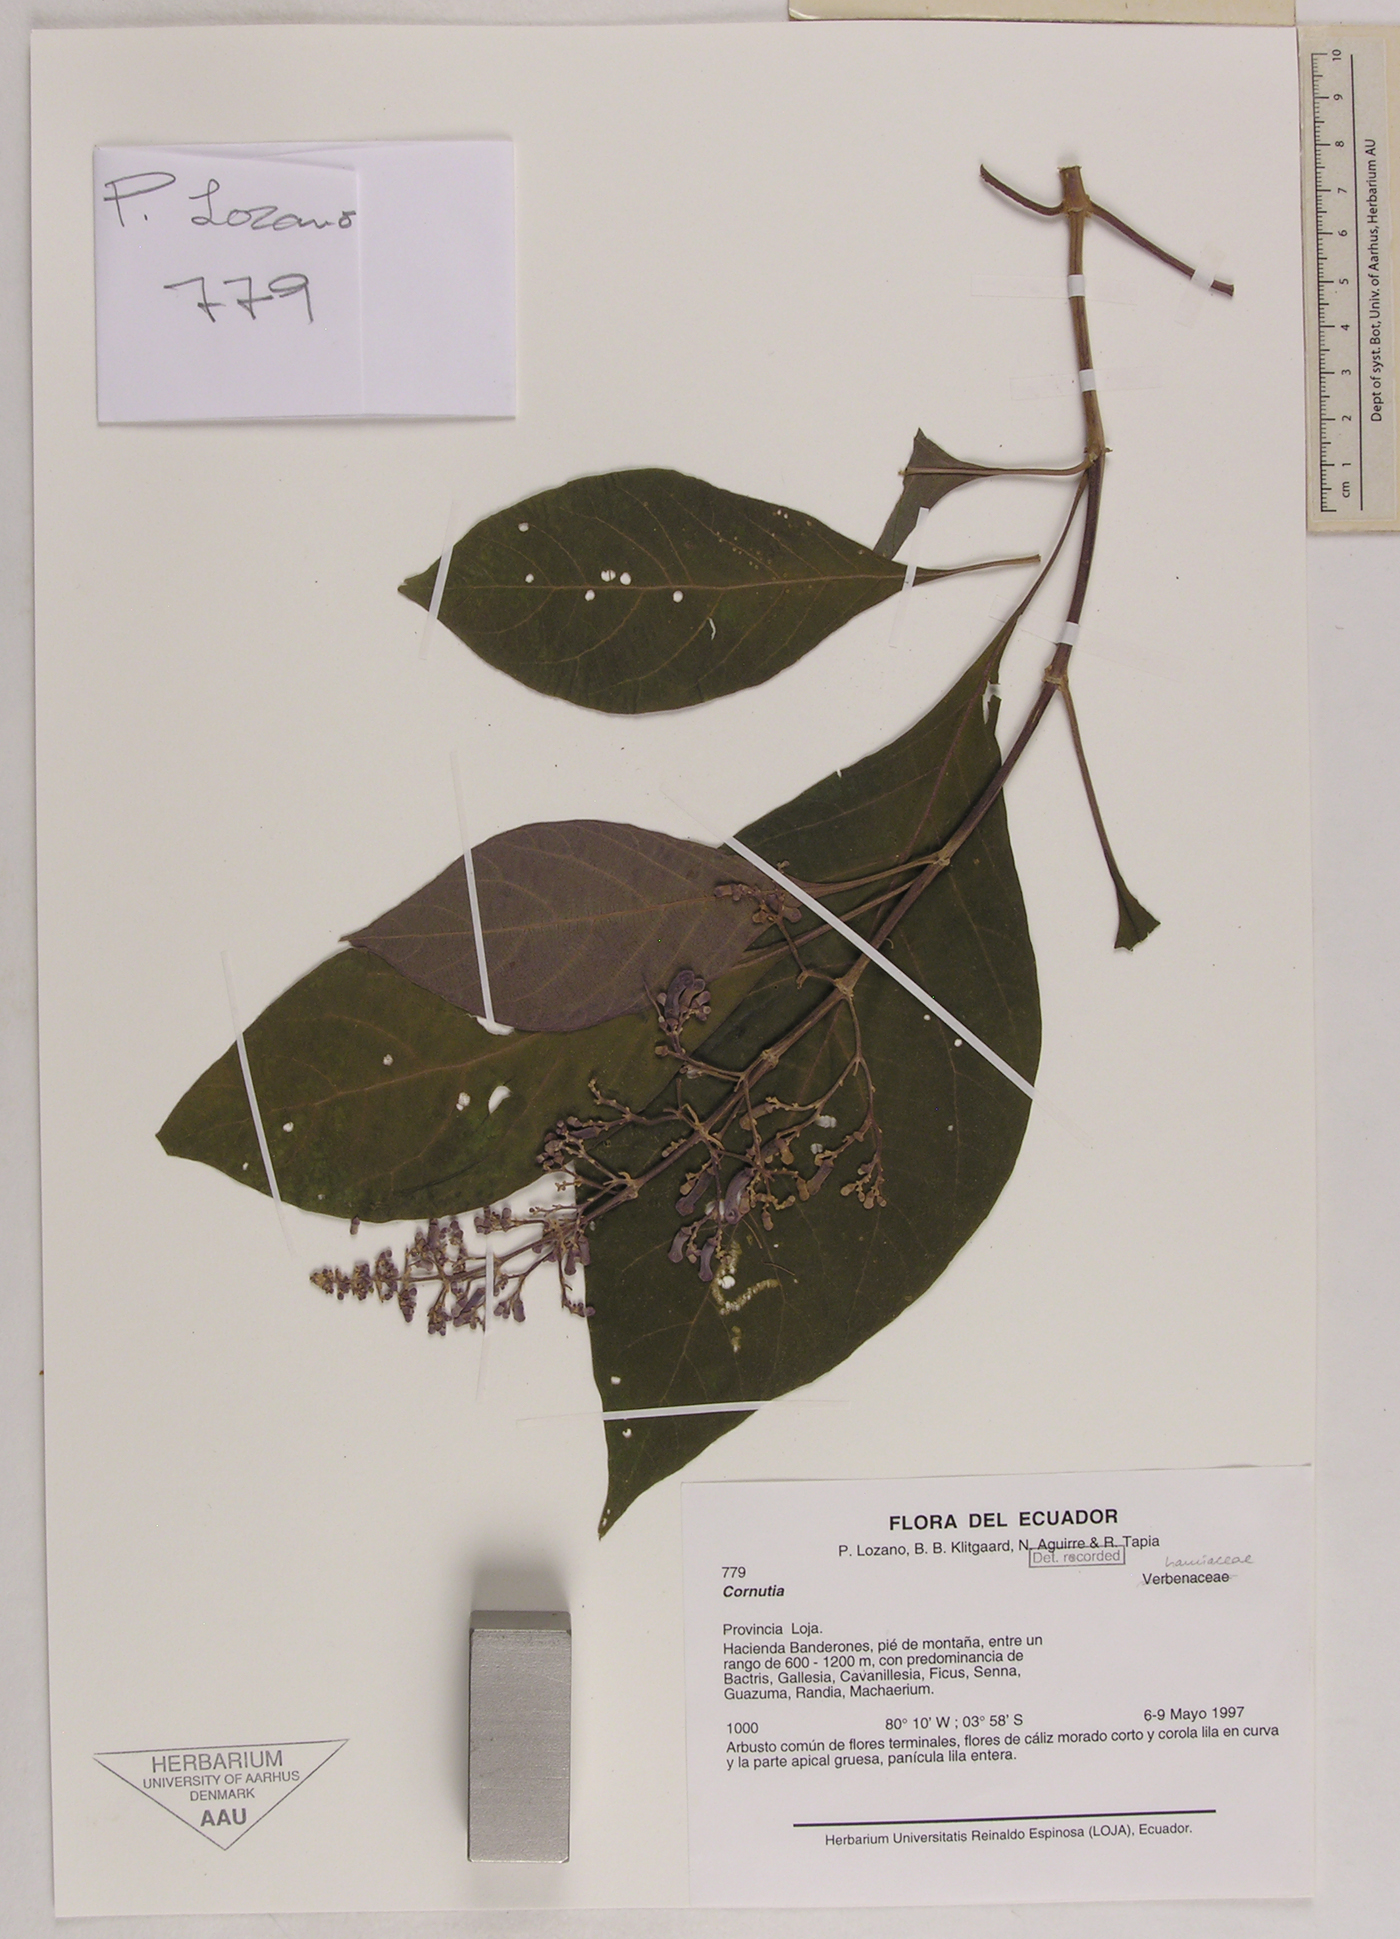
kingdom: Plantae
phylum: Tracheophyta
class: Magnoliopsida
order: Lamiales
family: Lamiaceae
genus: Cornutia
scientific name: Cornutia
